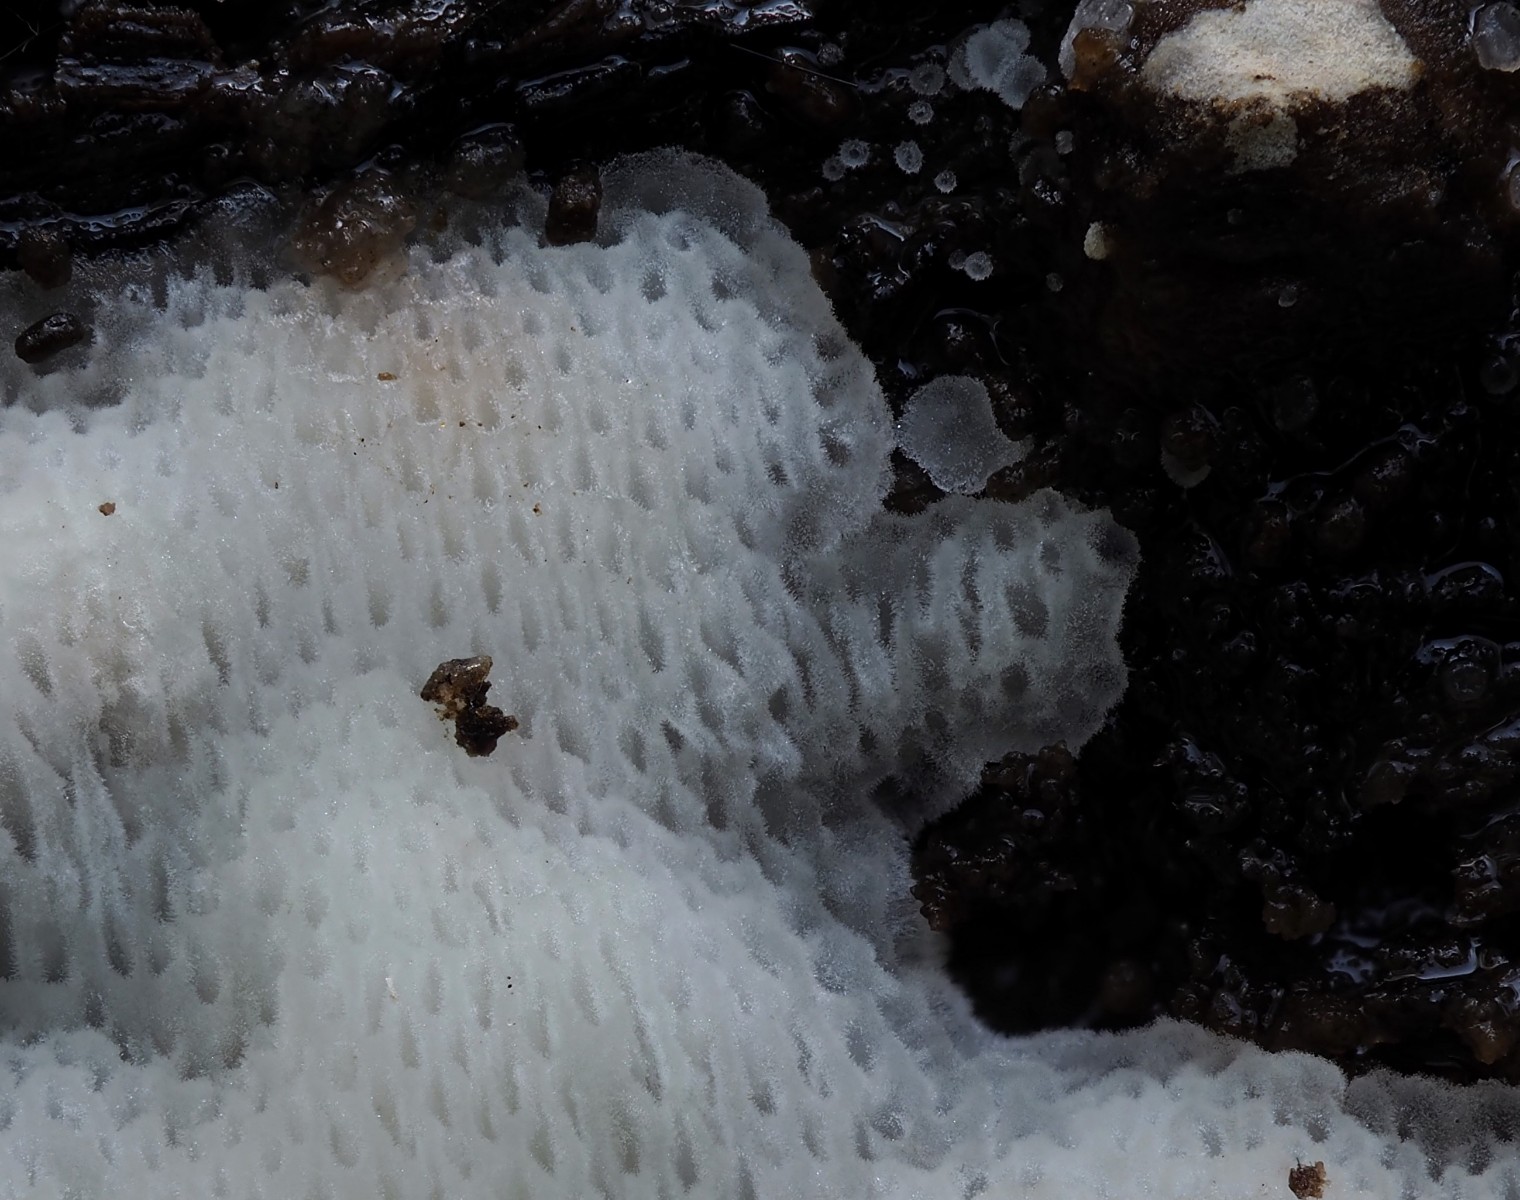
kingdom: Fungi
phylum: Basidiomycota
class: Agaricomycetes
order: Polyporales
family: Meripilaceae
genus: Rigidoporus
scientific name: Rigidoporus sanguinolentus
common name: blod-skorpeporesvamp
